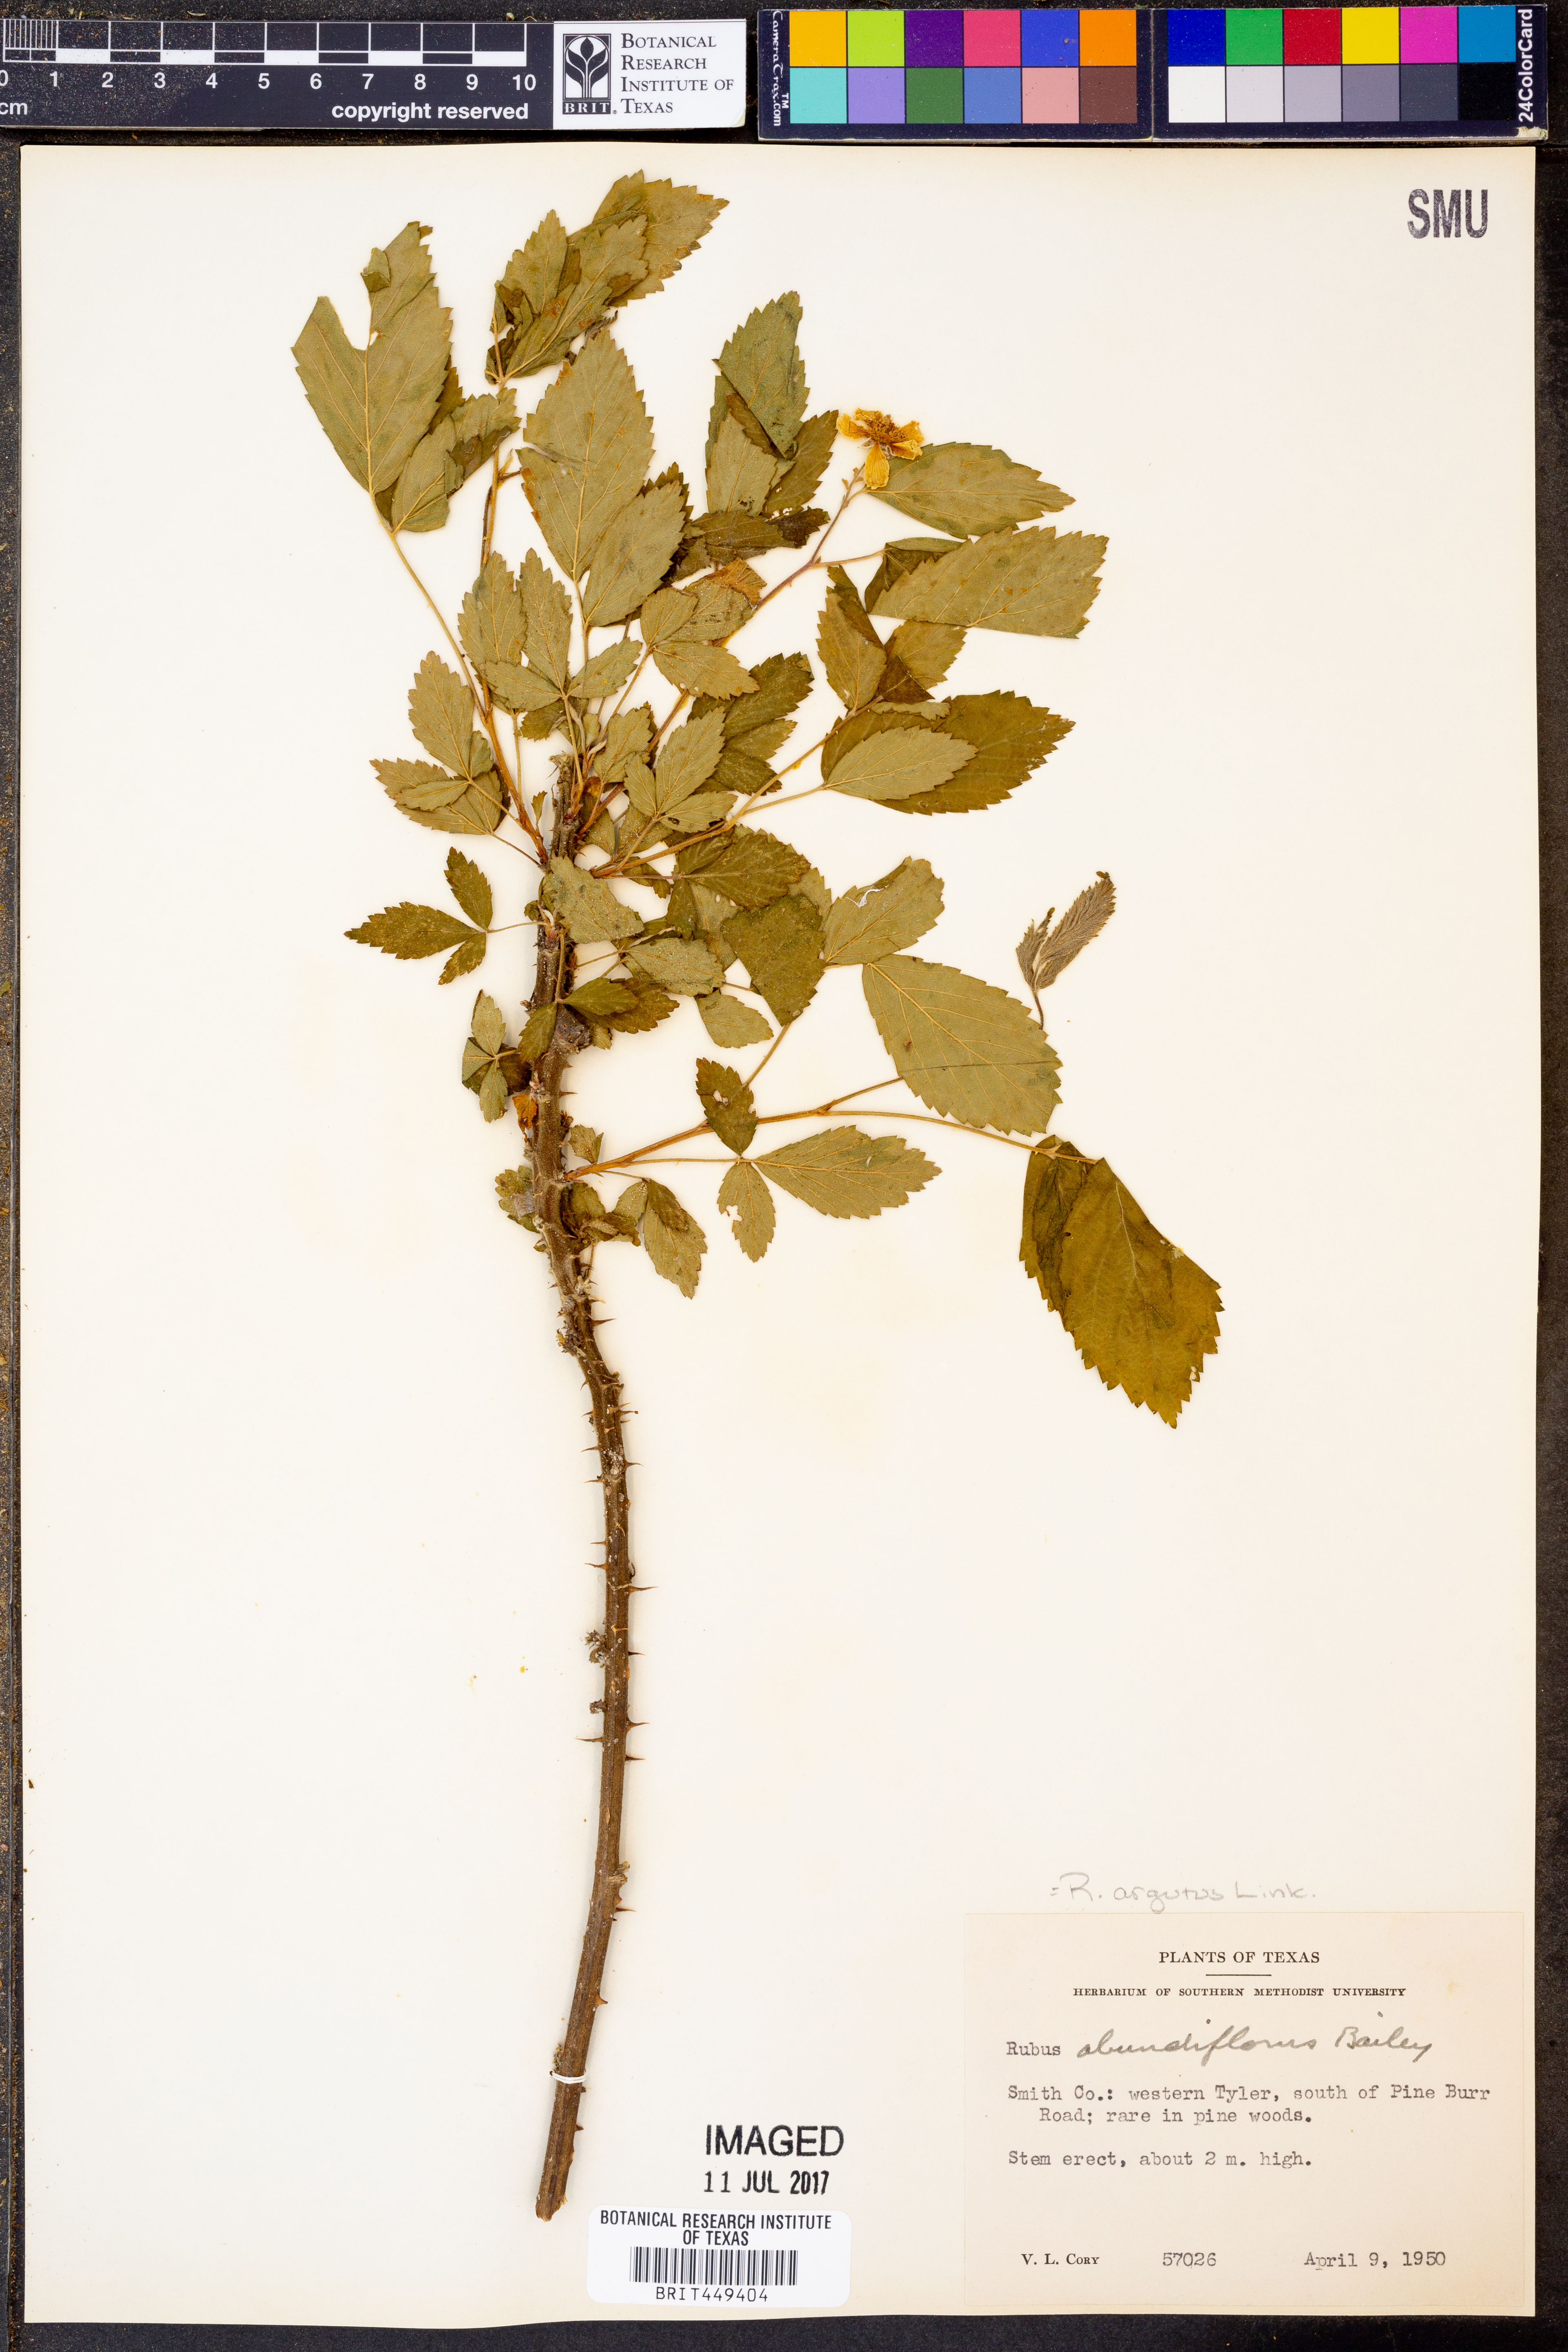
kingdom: Plantae
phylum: Tracheophyta
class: Magnoliopsida
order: Rosales
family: Rosaceae
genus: Rubus
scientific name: Rubus argutus
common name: Sawtooth blackberry
